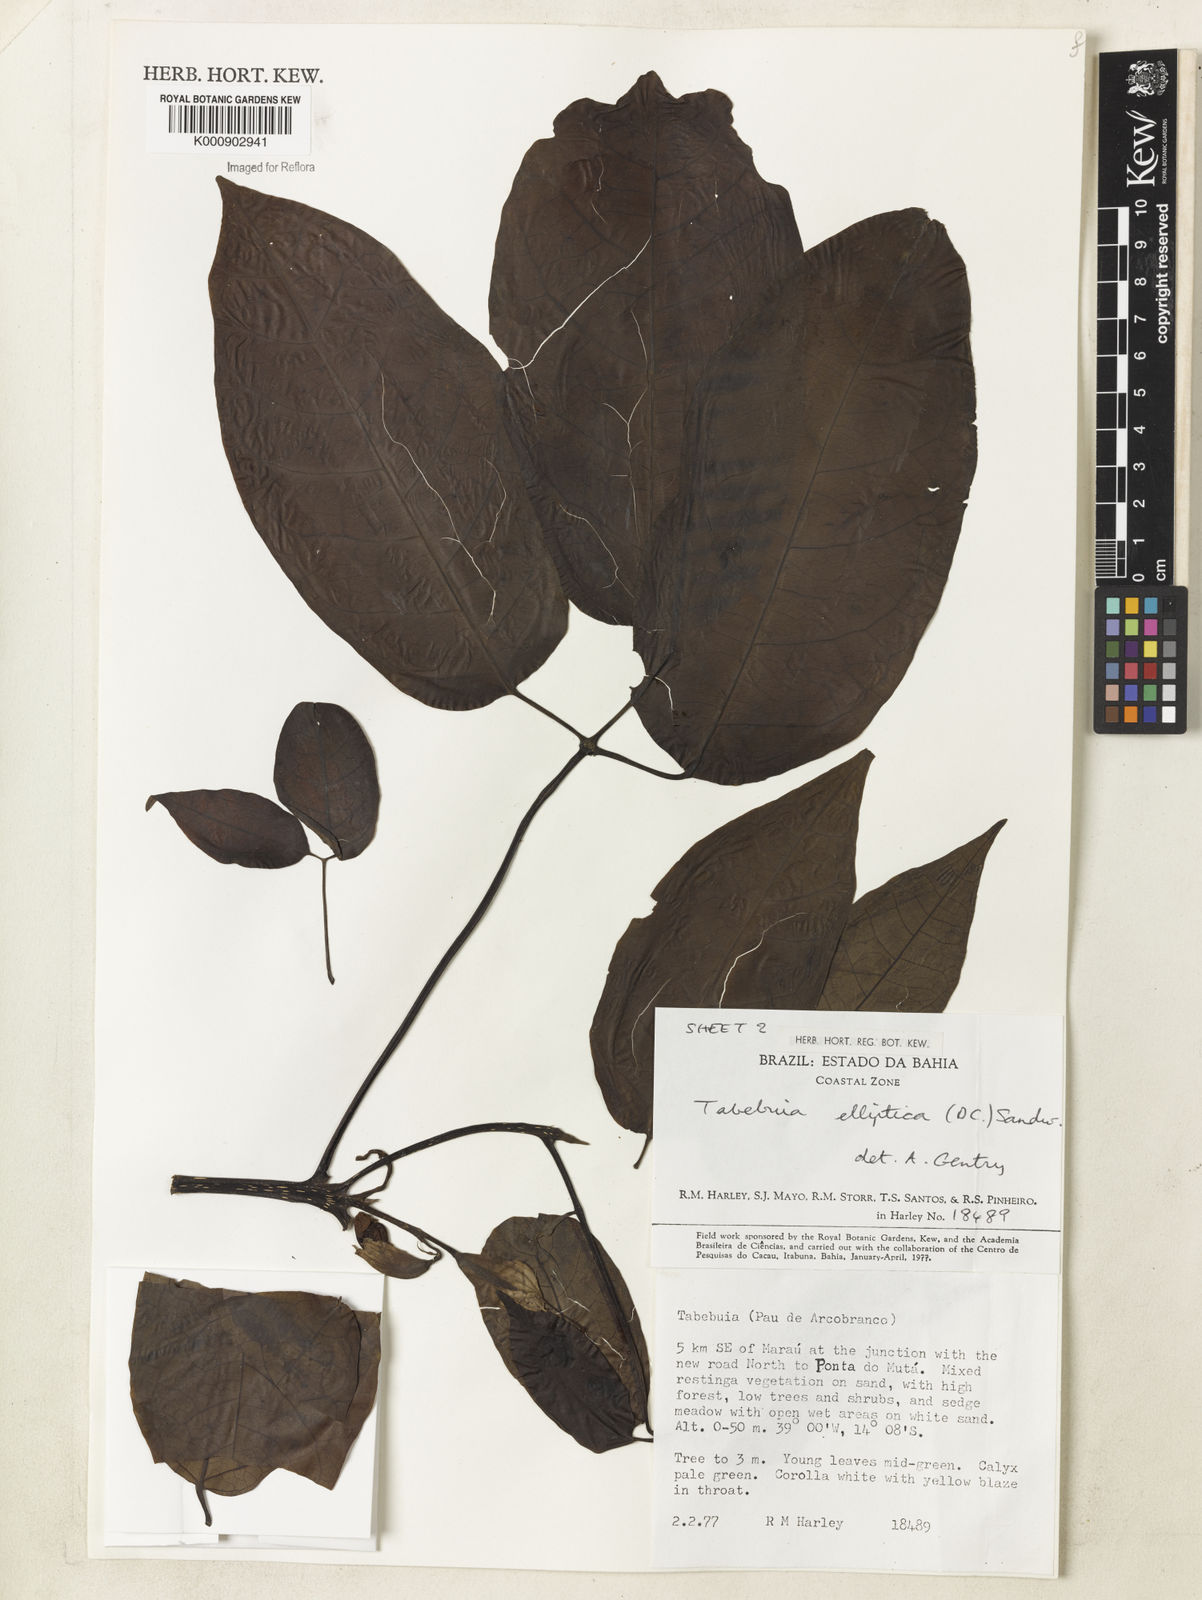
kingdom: Plantae
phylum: Tracheophyta
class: Magnoliopsida
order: Lamiales
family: Bignoniaceae
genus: Tabebuia
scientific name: Tabebuia elliptica
